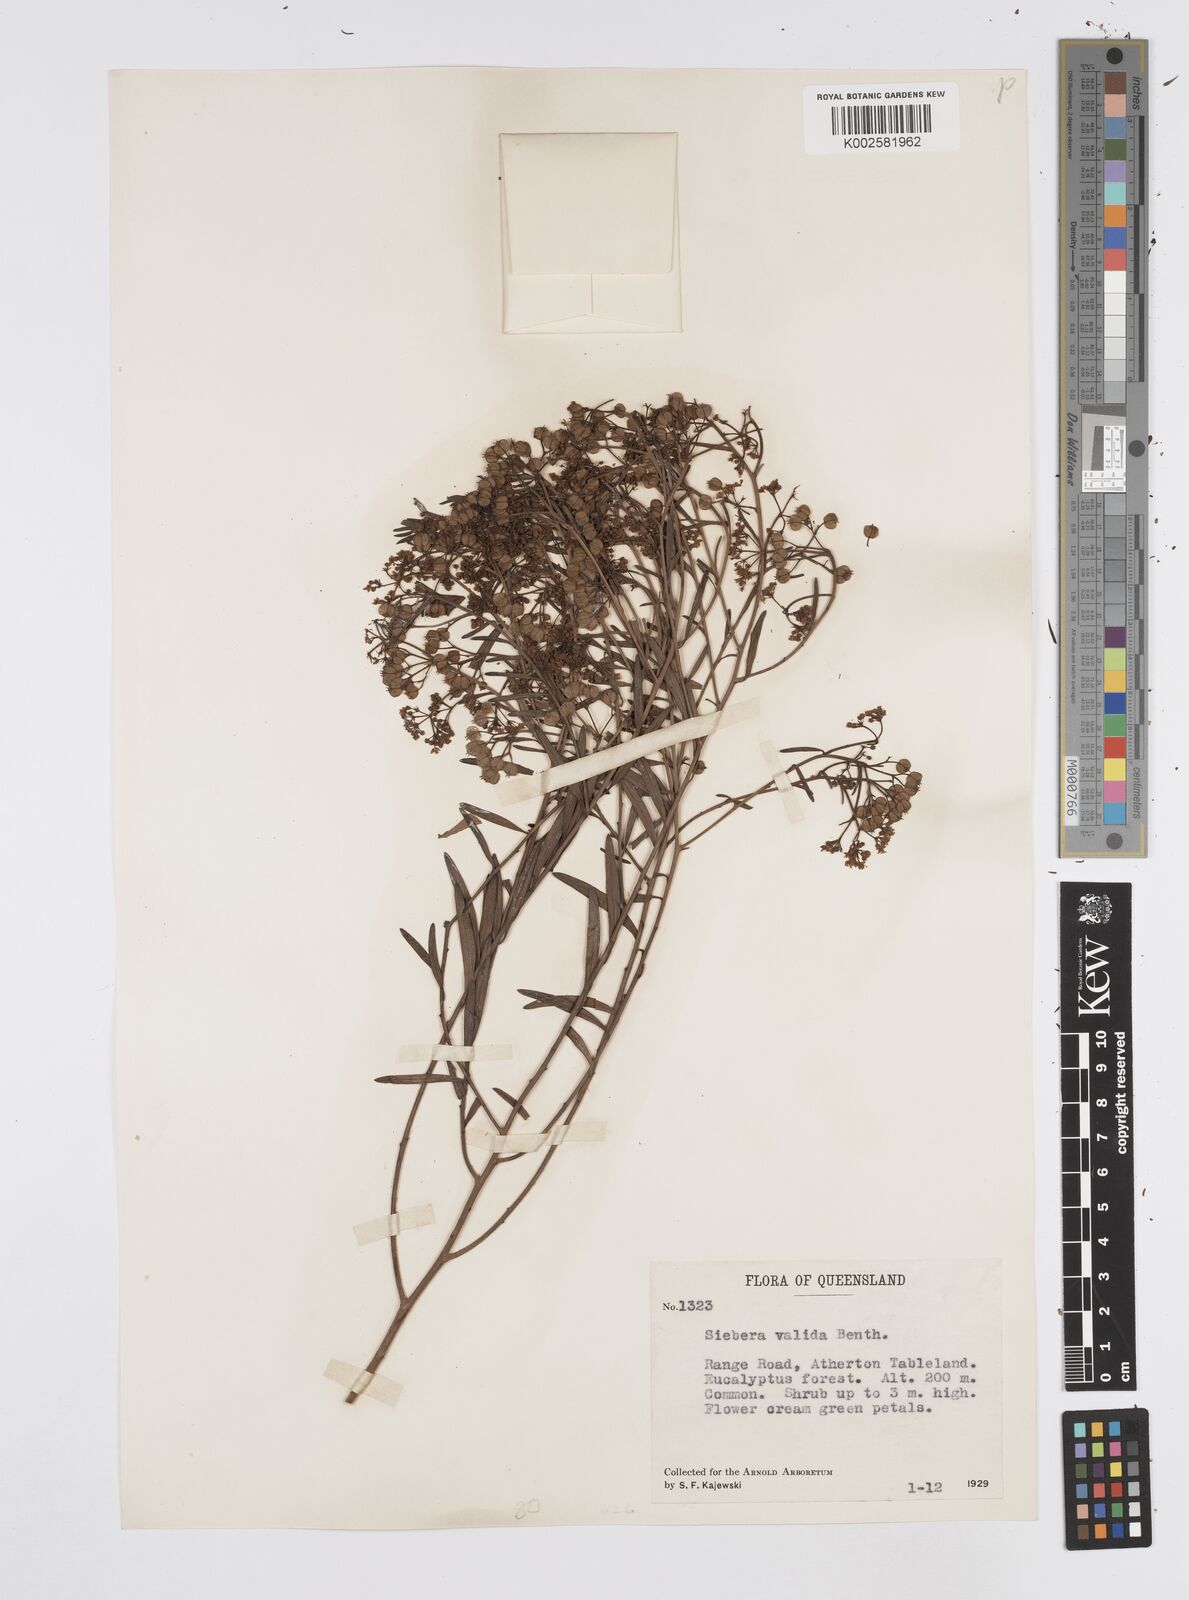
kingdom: Plantae
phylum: Tracheophyta
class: Magnoliopsida
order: Apiales
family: Apiaceae
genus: Platysace
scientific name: Platysace valida
